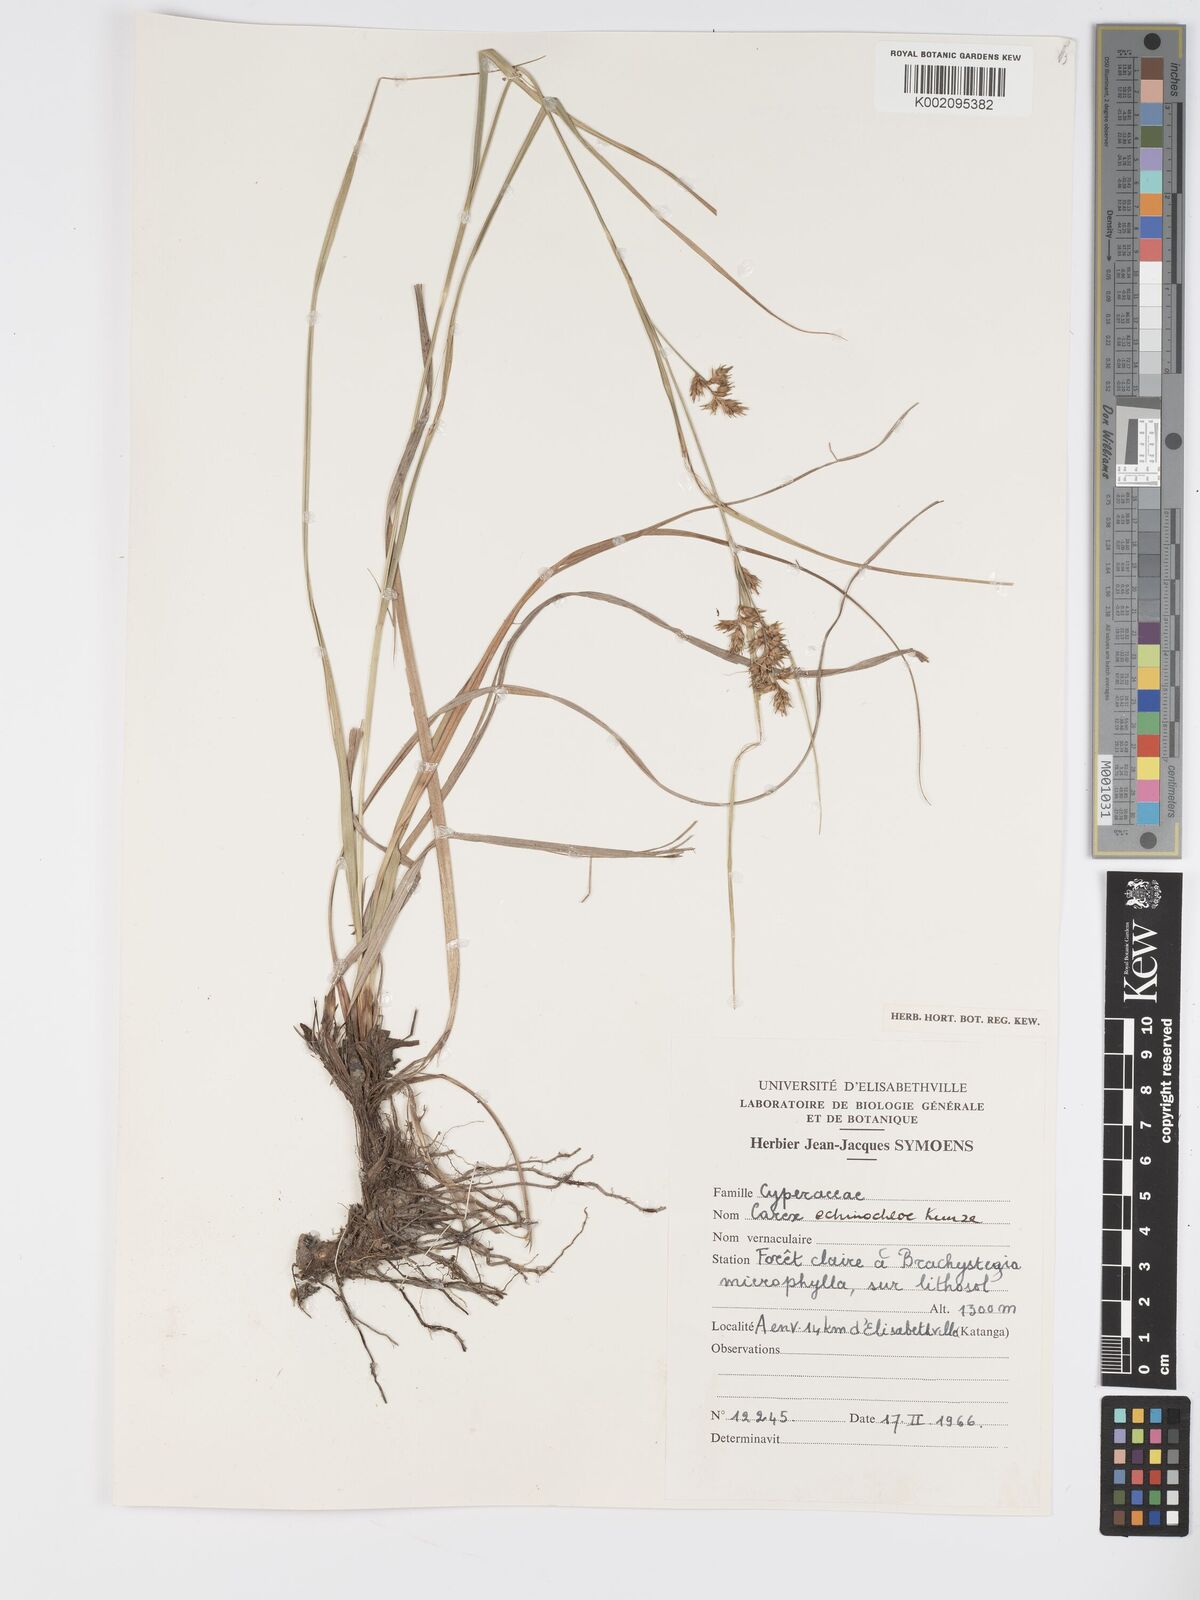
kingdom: Plantae
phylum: Tracheophyta
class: Liliopsida
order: Poales
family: Cyperaceae
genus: Carex
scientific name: Carex macrophyllidion
